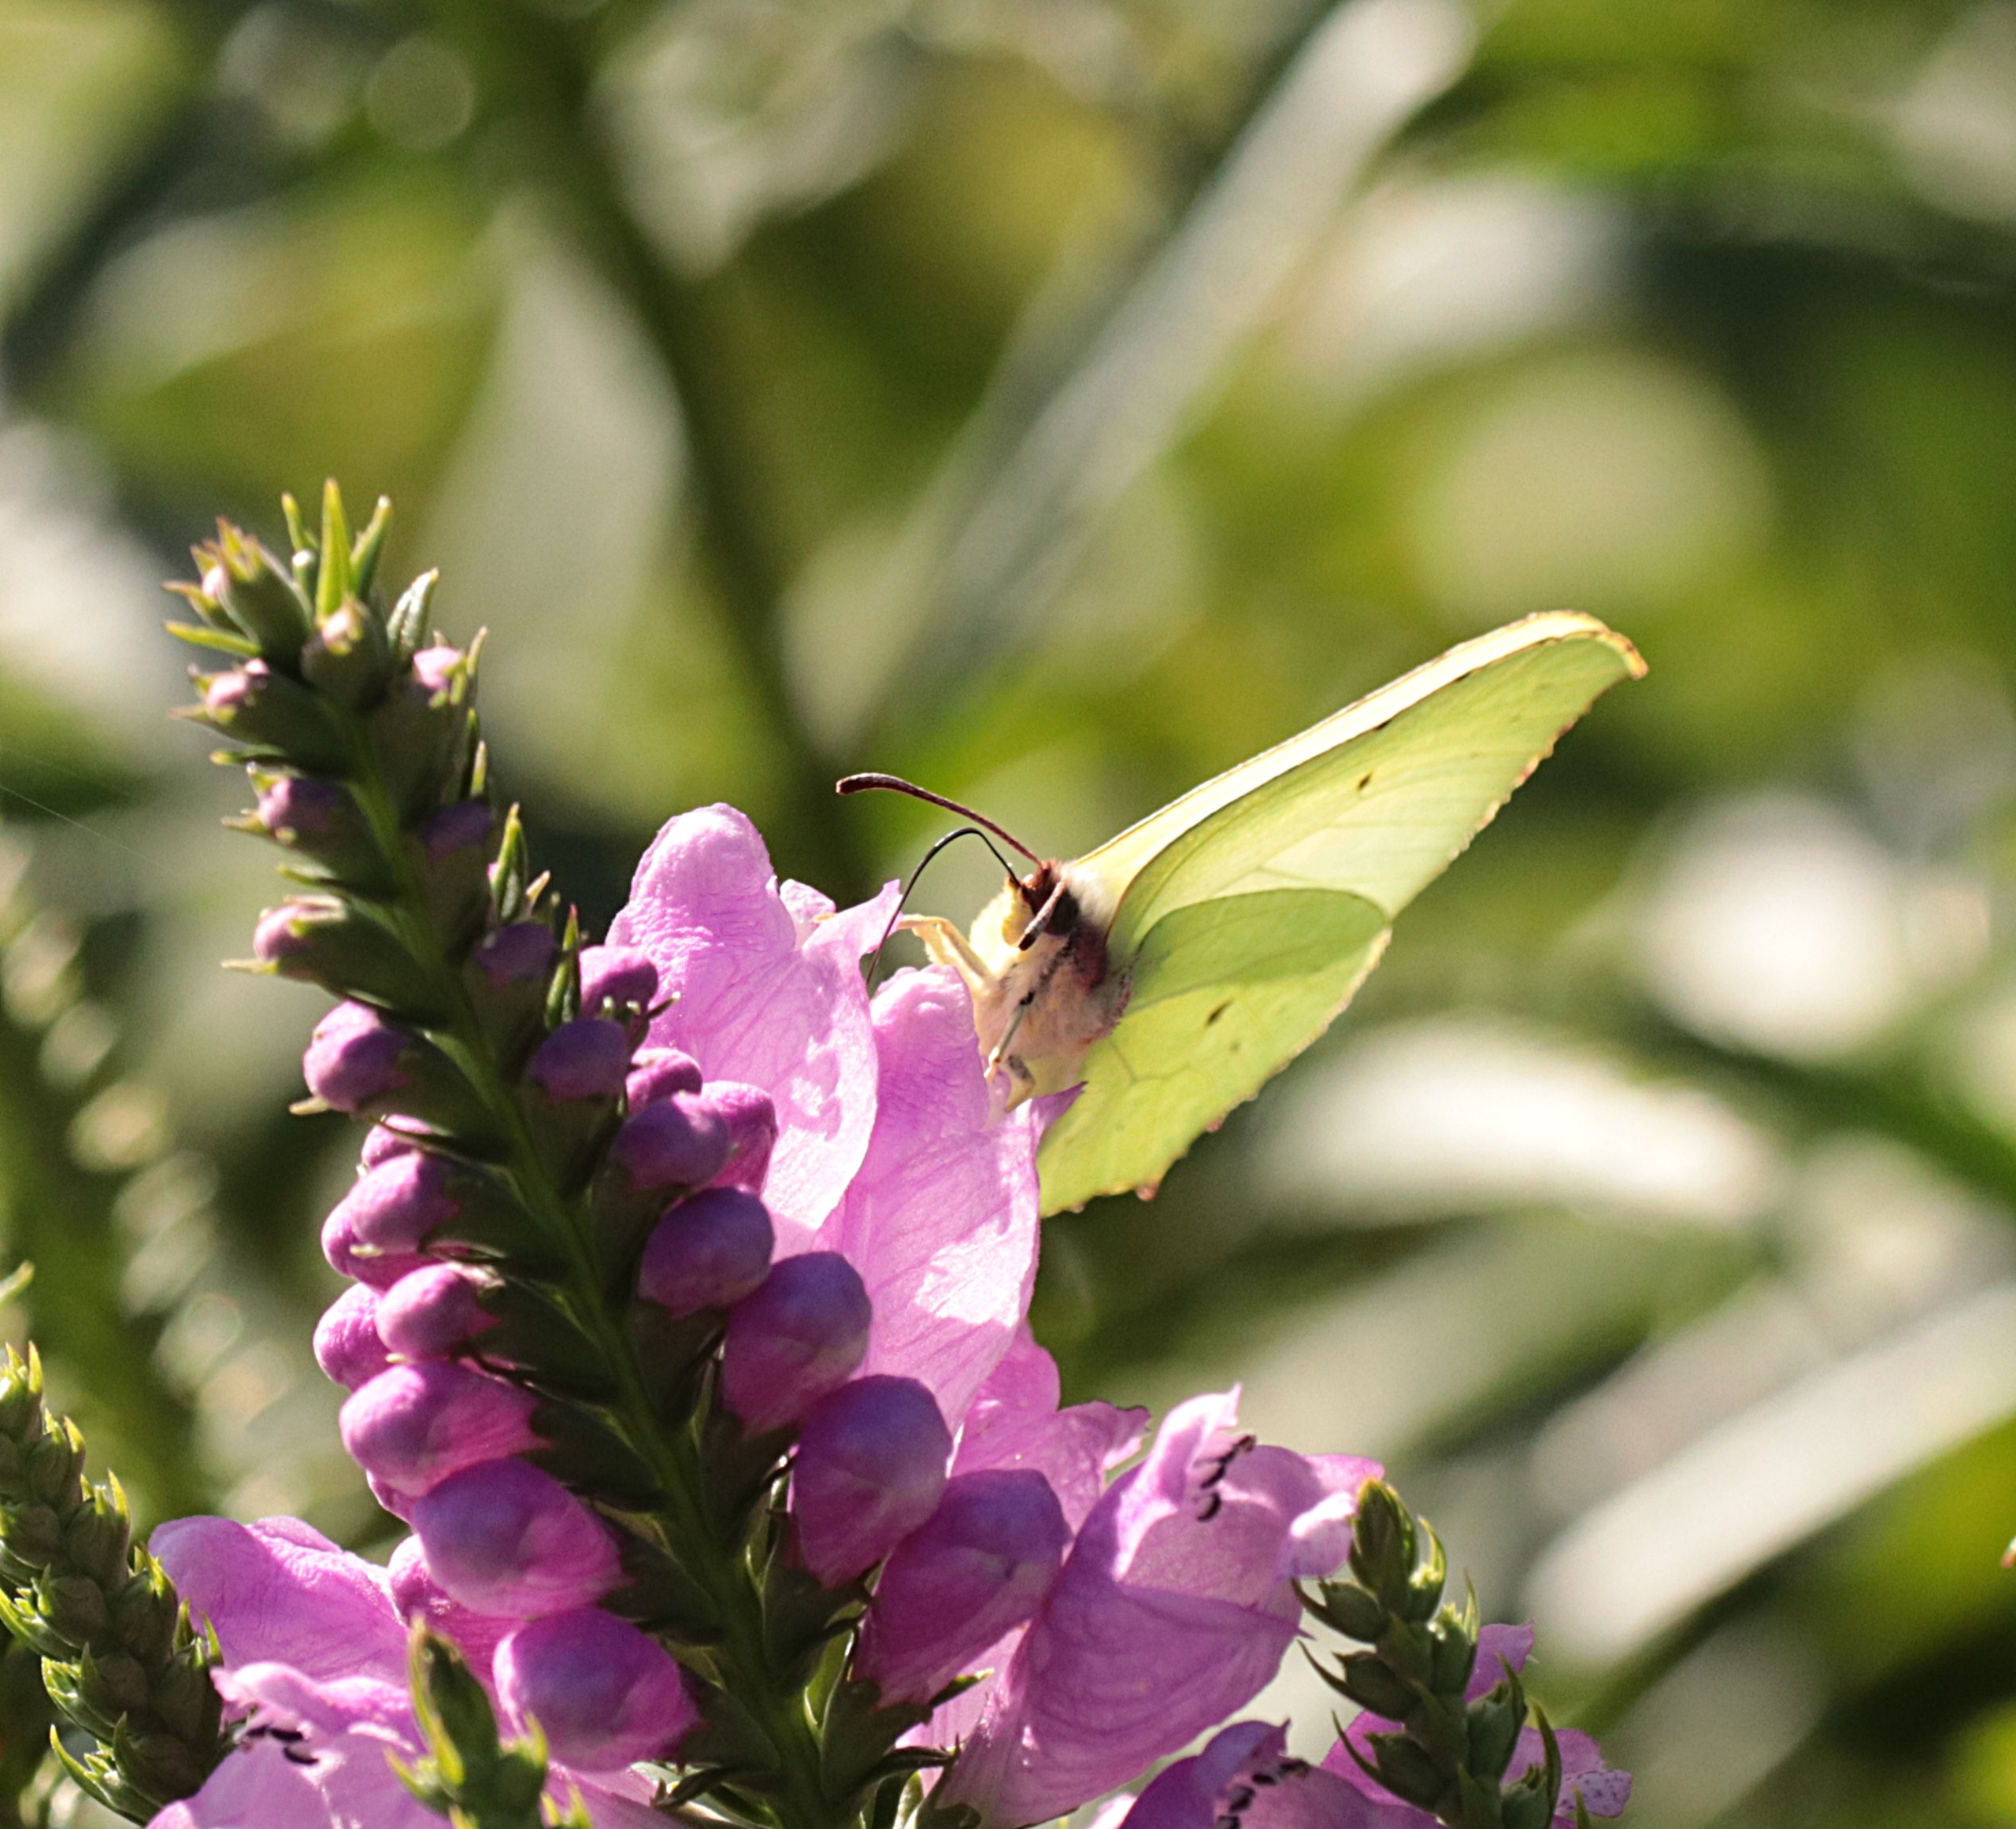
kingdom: Animalia
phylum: Arthropoda
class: Insecta
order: Lepidoptera
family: Pieridae
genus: Gonepteryx
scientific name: Gonepteryx rhamni
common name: Citronsommerfugl
